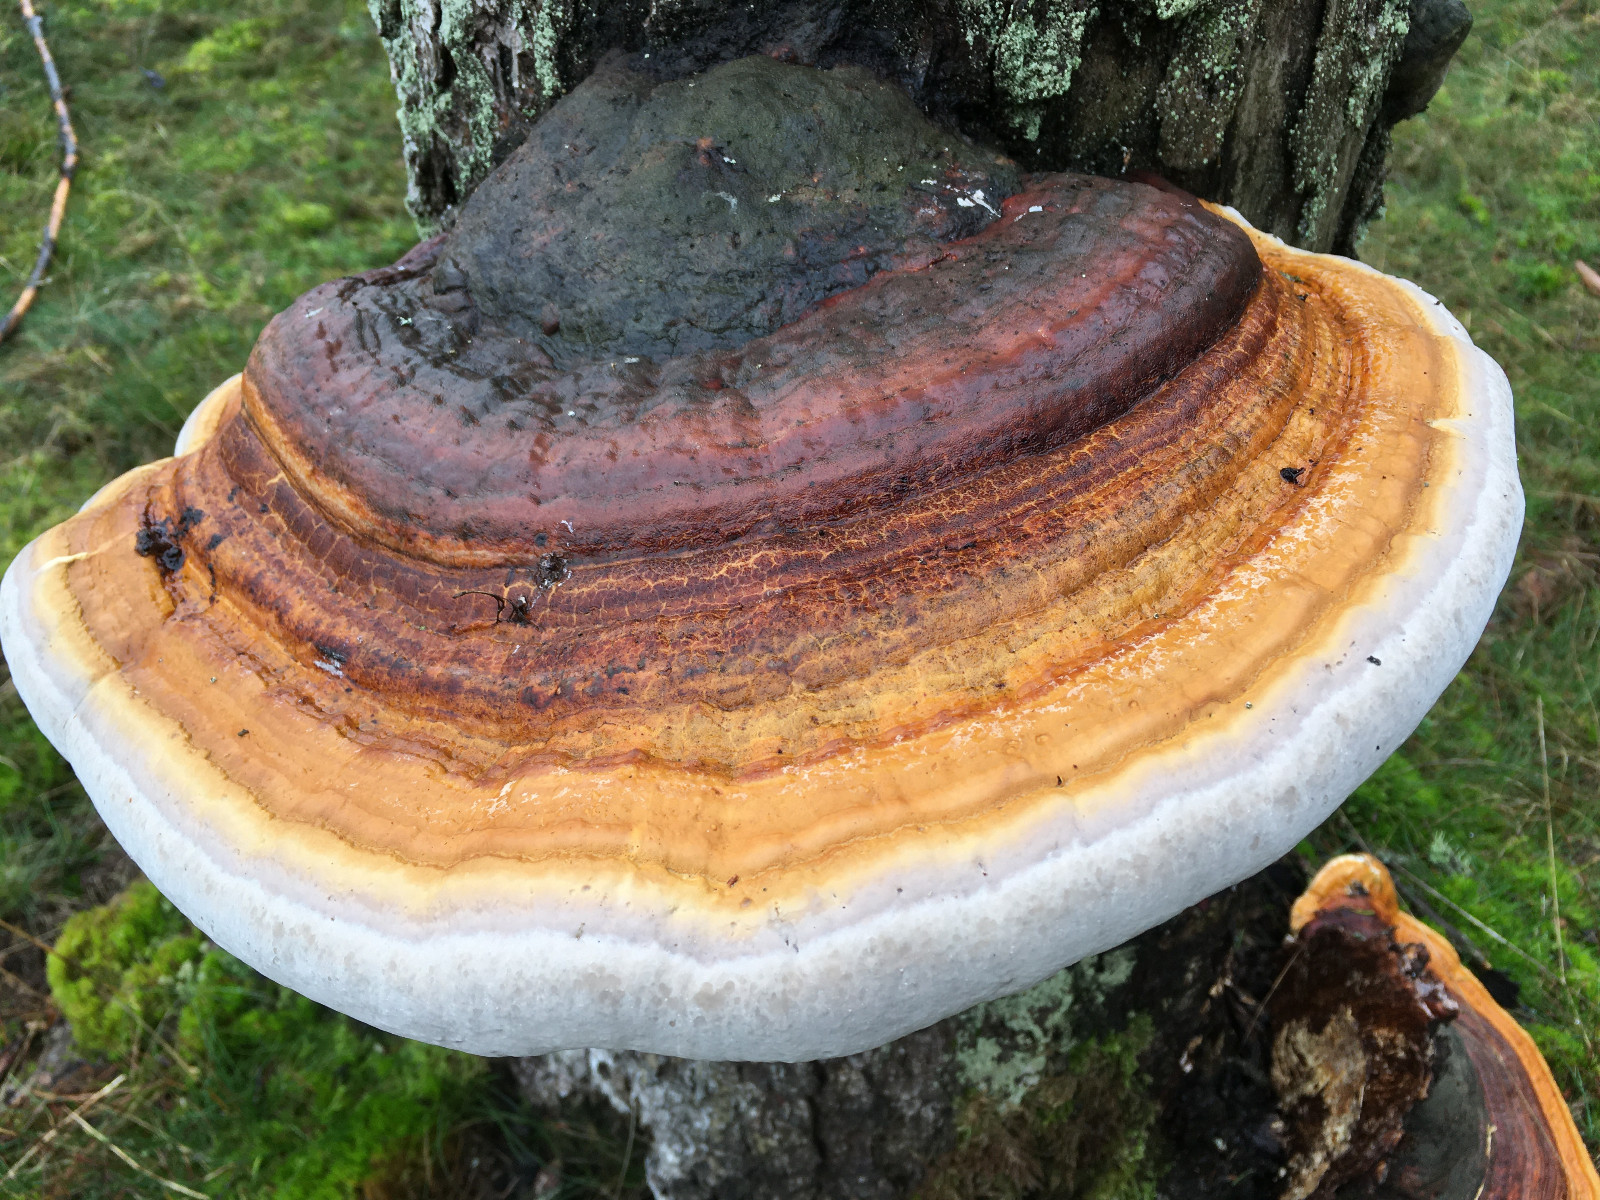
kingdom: Fungi
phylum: Basidiomycota
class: Agaricomycetes
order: Polyporales
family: Fomitopsidaceae
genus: Fomitopsis
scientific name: Fomitopsis pinicola
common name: randbæltet hovporesvamp
